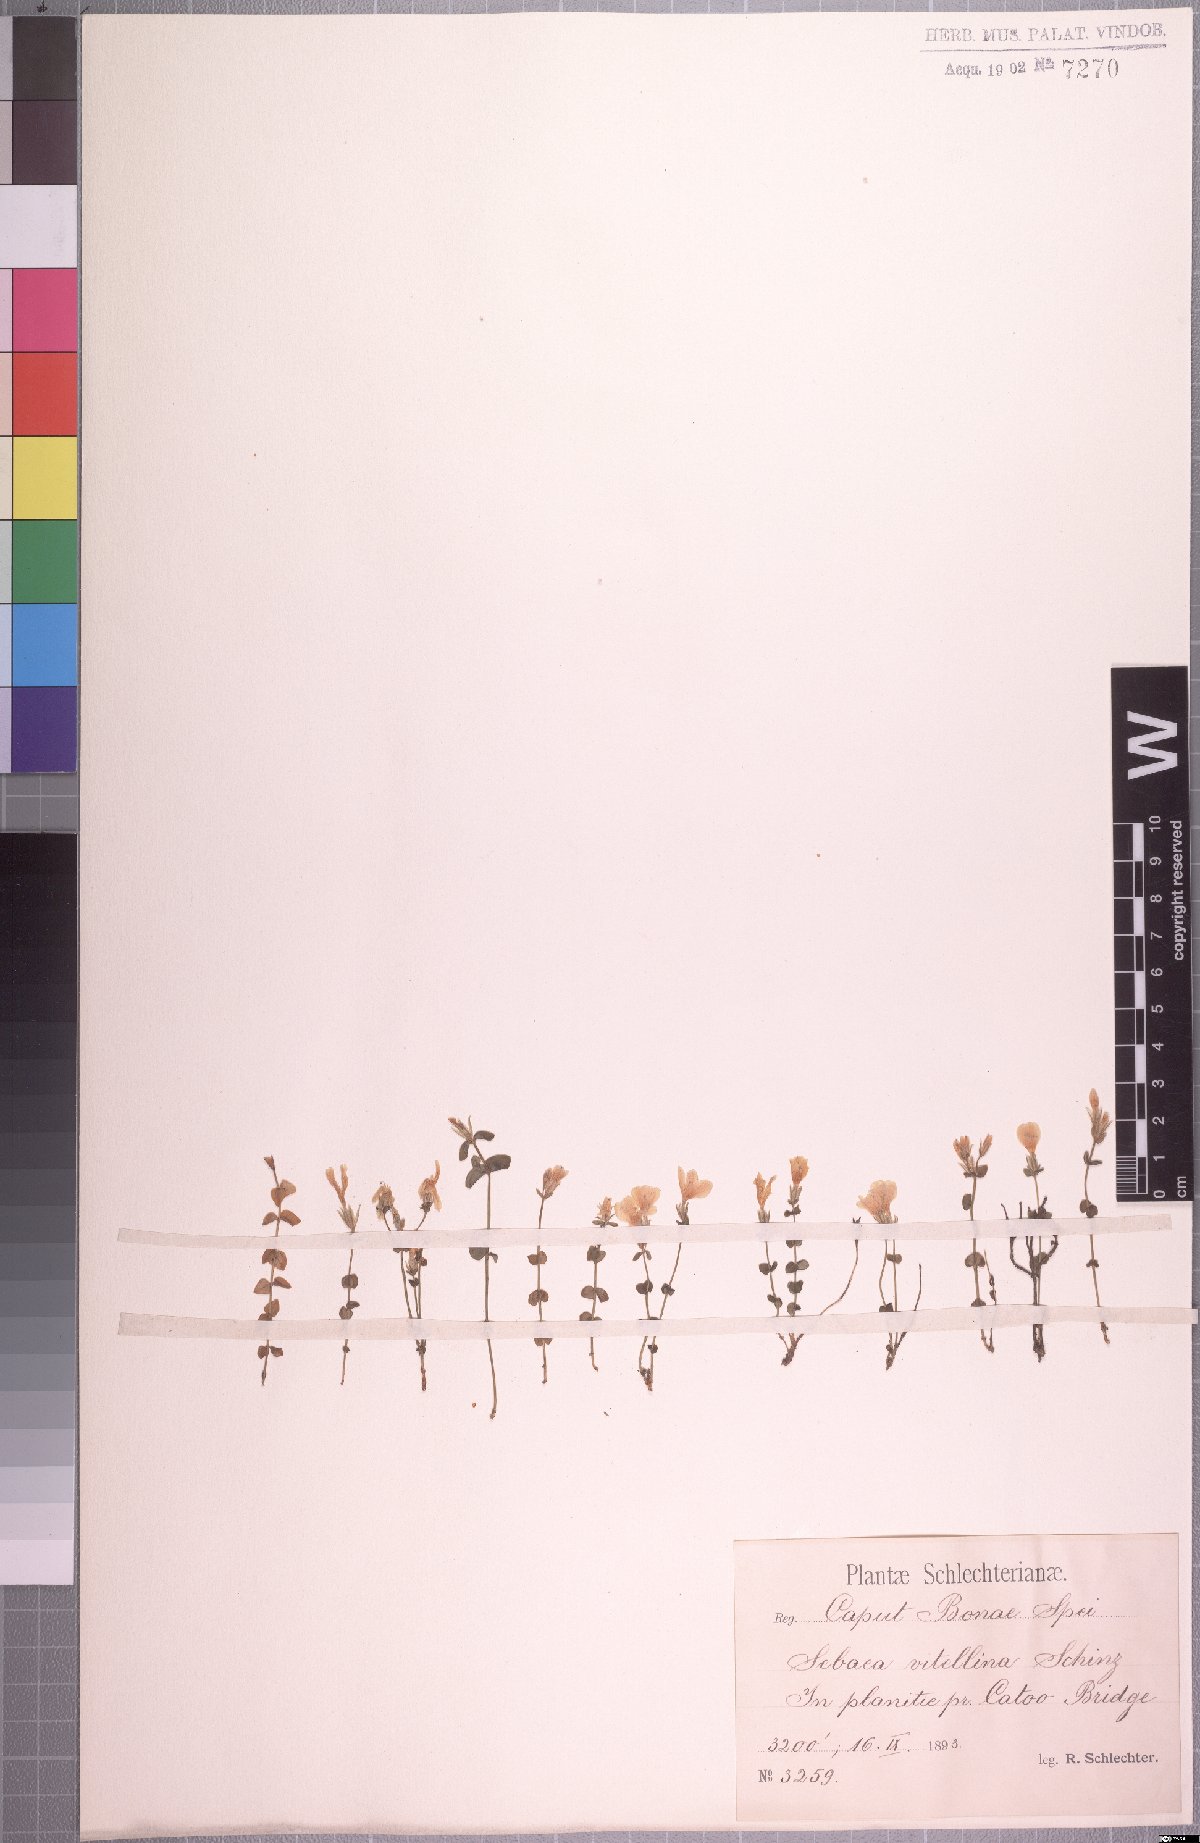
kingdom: Plantae
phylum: Tracheophyta
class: Magnoliopsida
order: Gentianales
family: Gentianaceae
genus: Sebaea
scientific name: Sebaea natalensis
